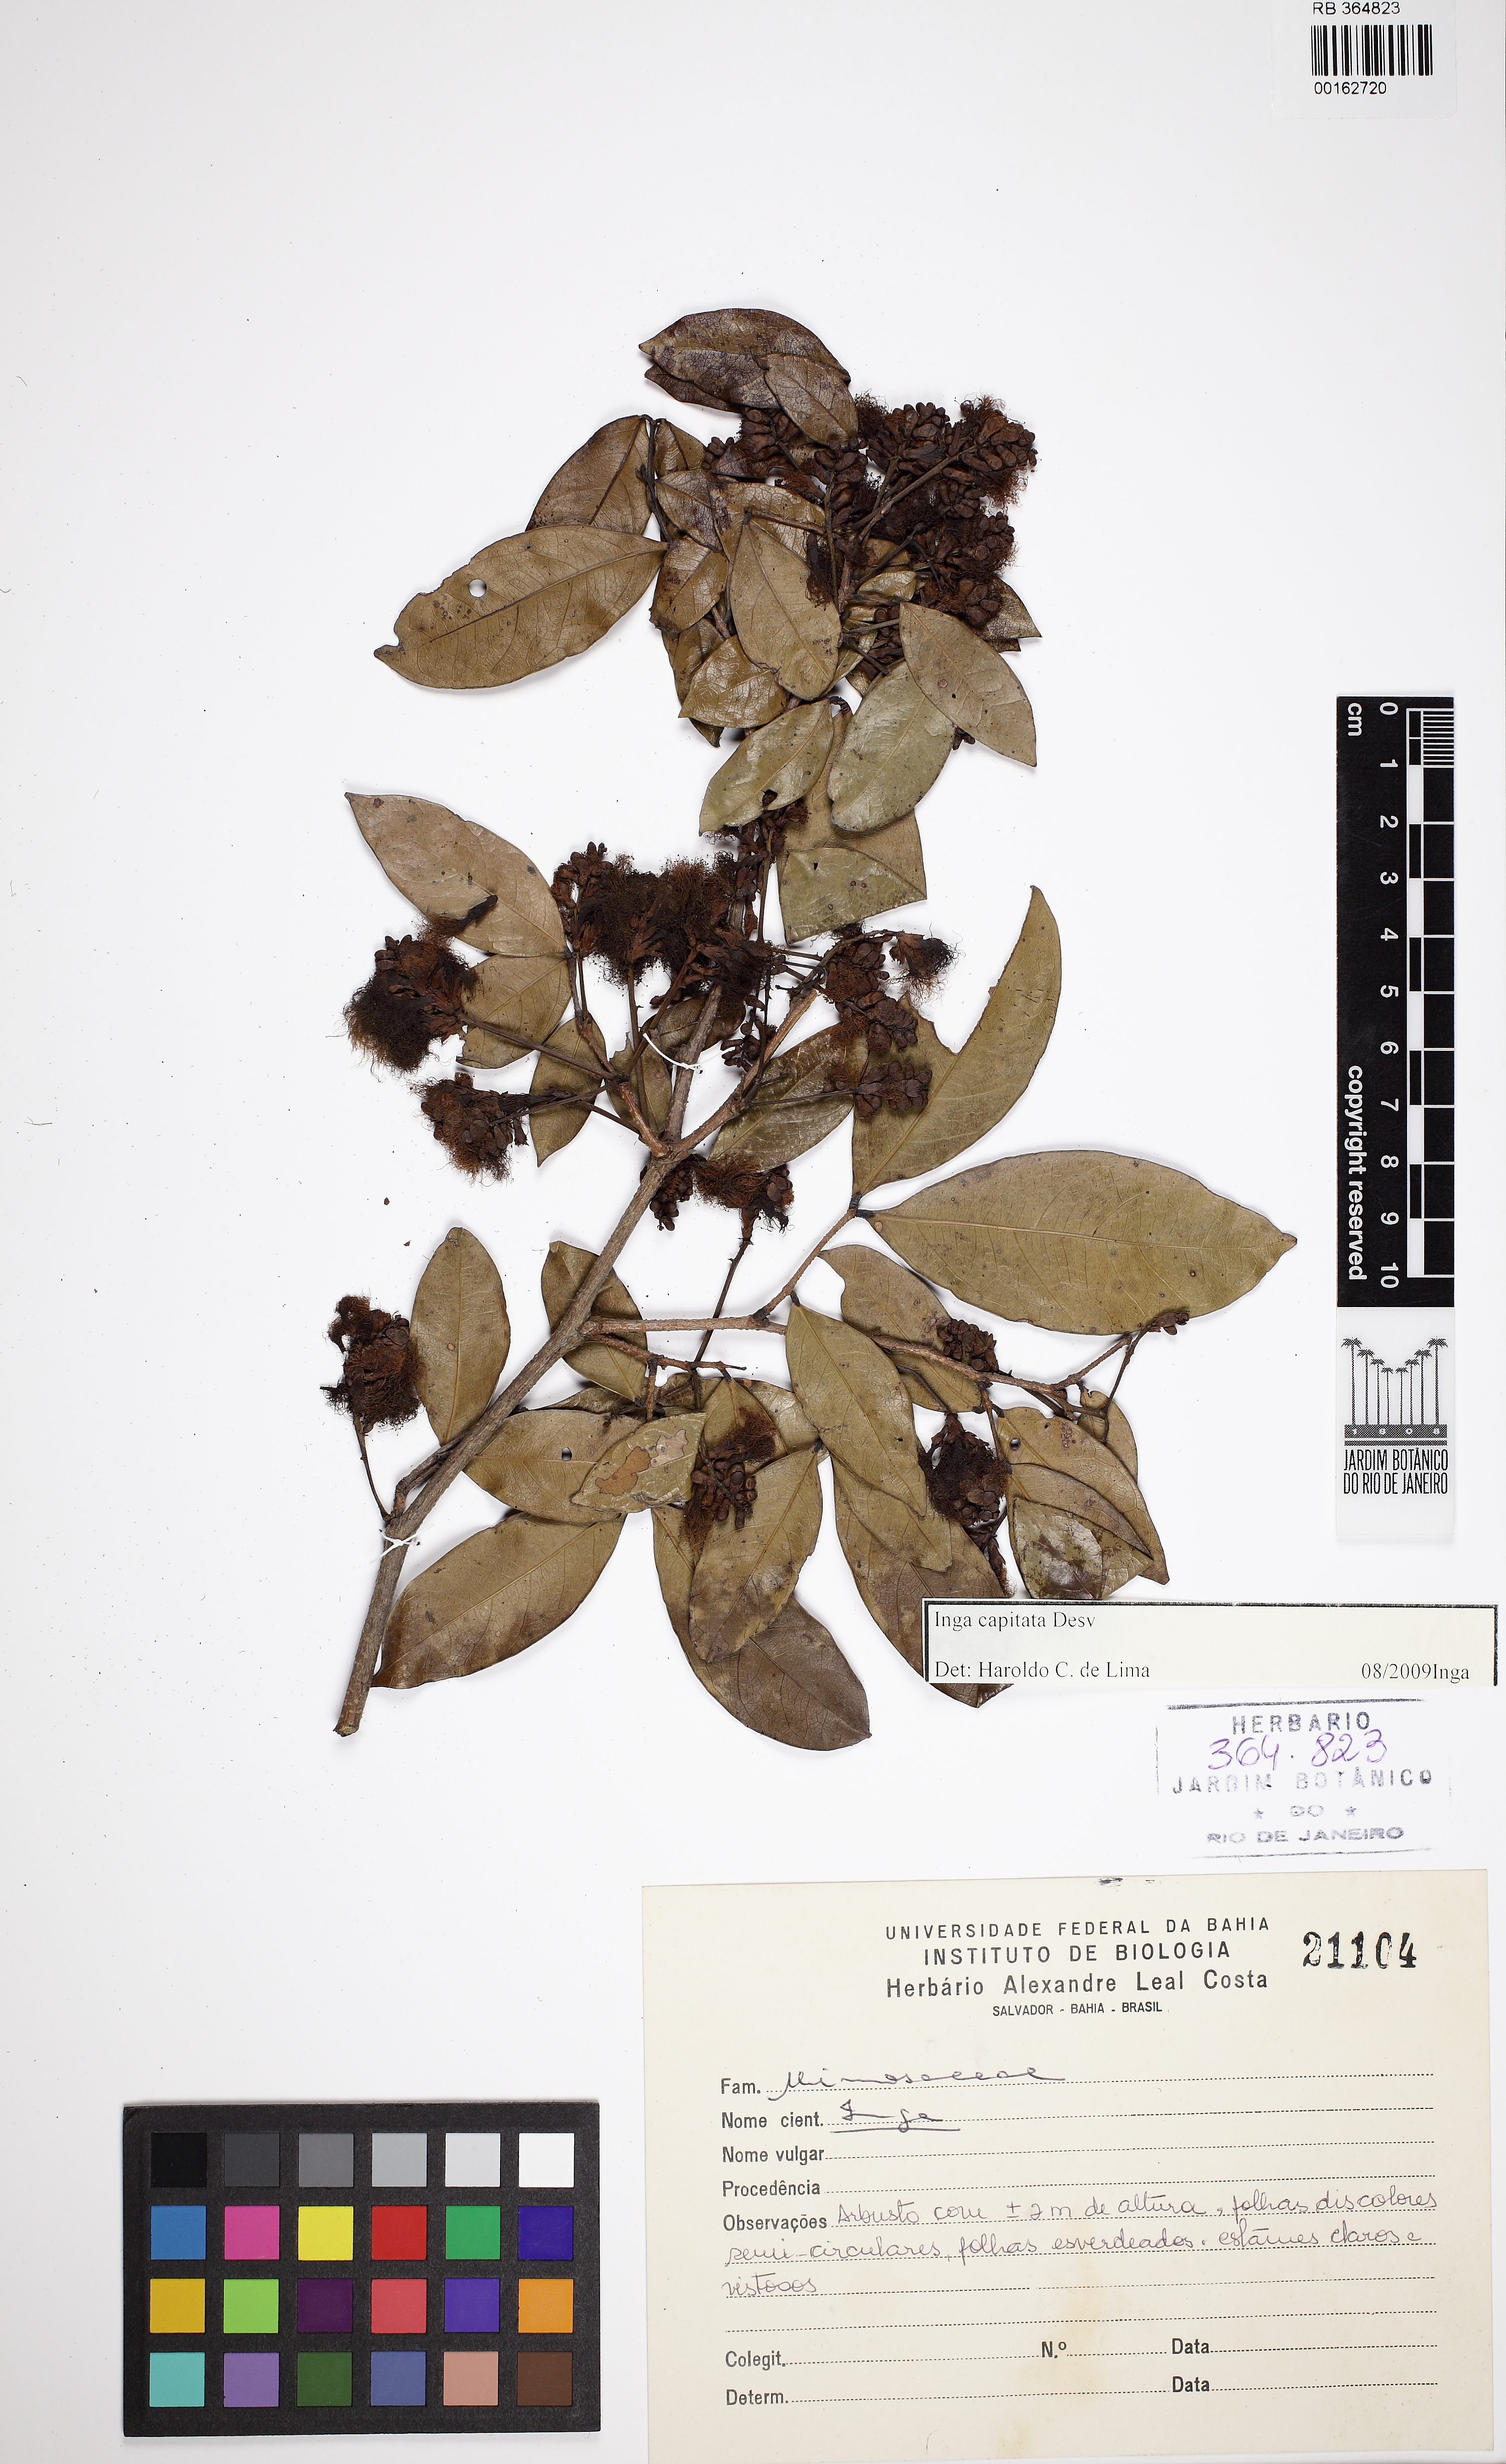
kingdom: Plantae
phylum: Tracheophyta
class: Magnoliopsida
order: Fabales
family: Fabaceae
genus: Inga
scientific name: Inga capitata
